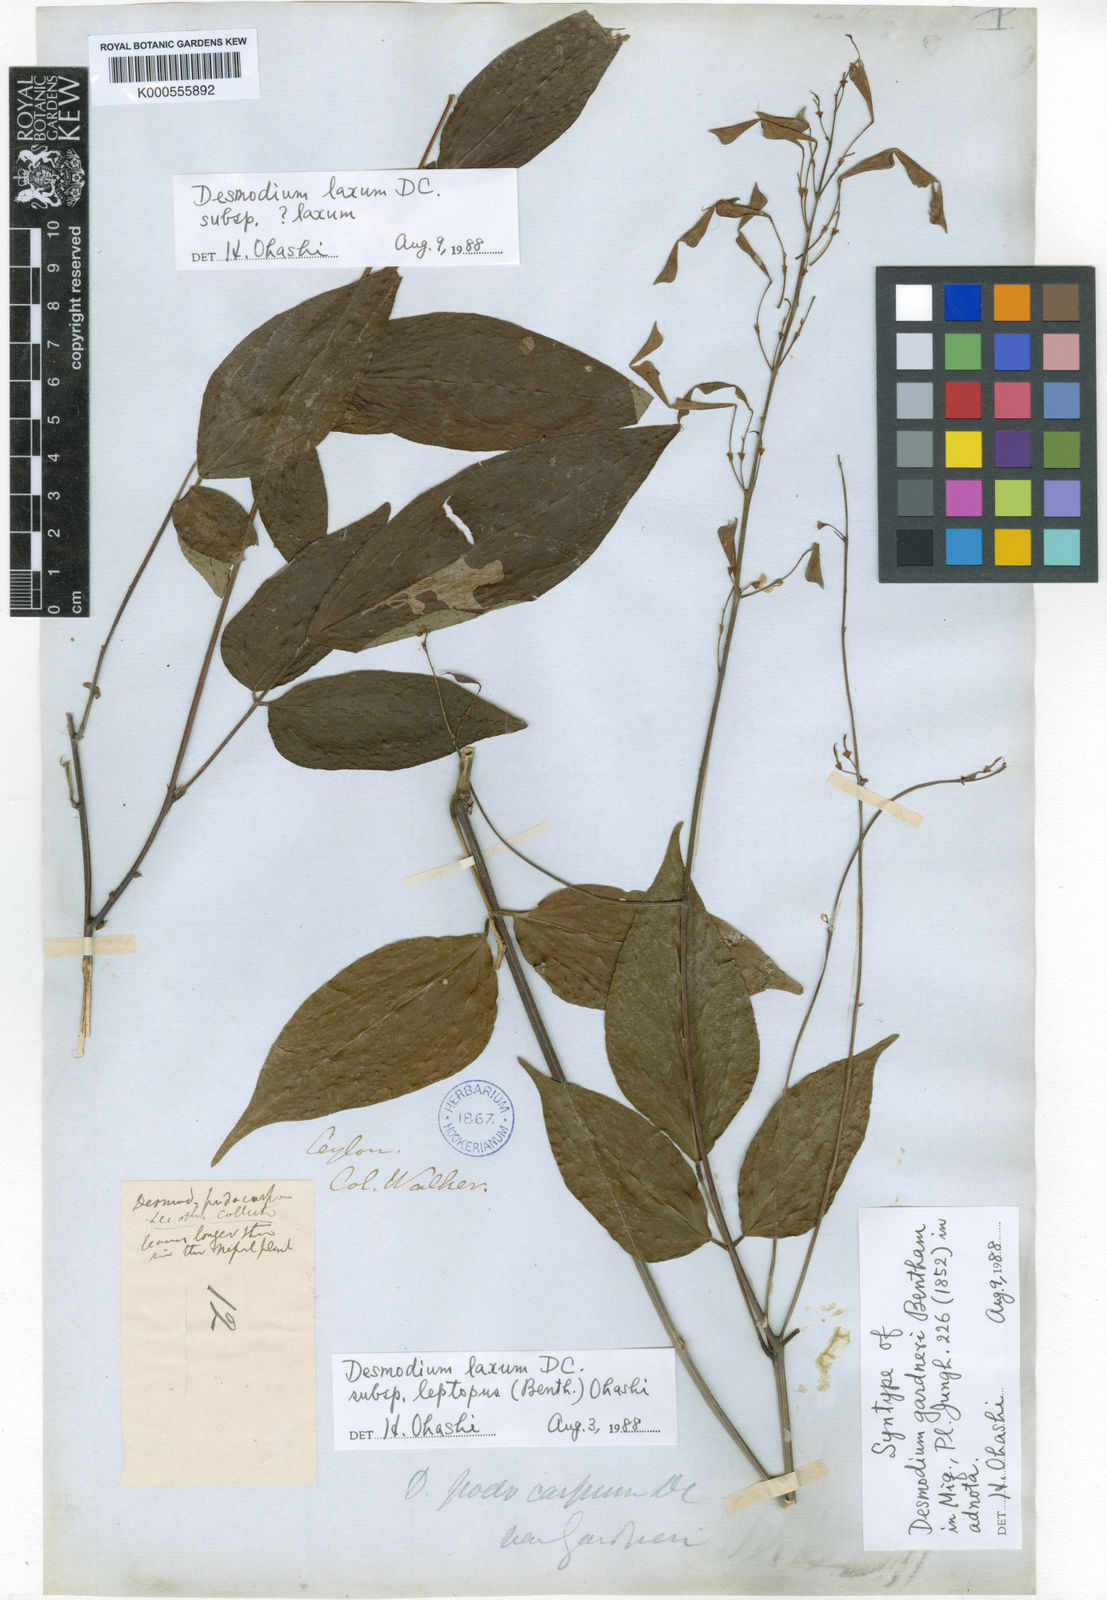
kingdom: Plantae
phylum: Tracheophyta
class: Magnoliopsida
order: Fabales
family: Fabaceae
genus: Hylodesmum
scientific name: Hylodesmum leptopus
